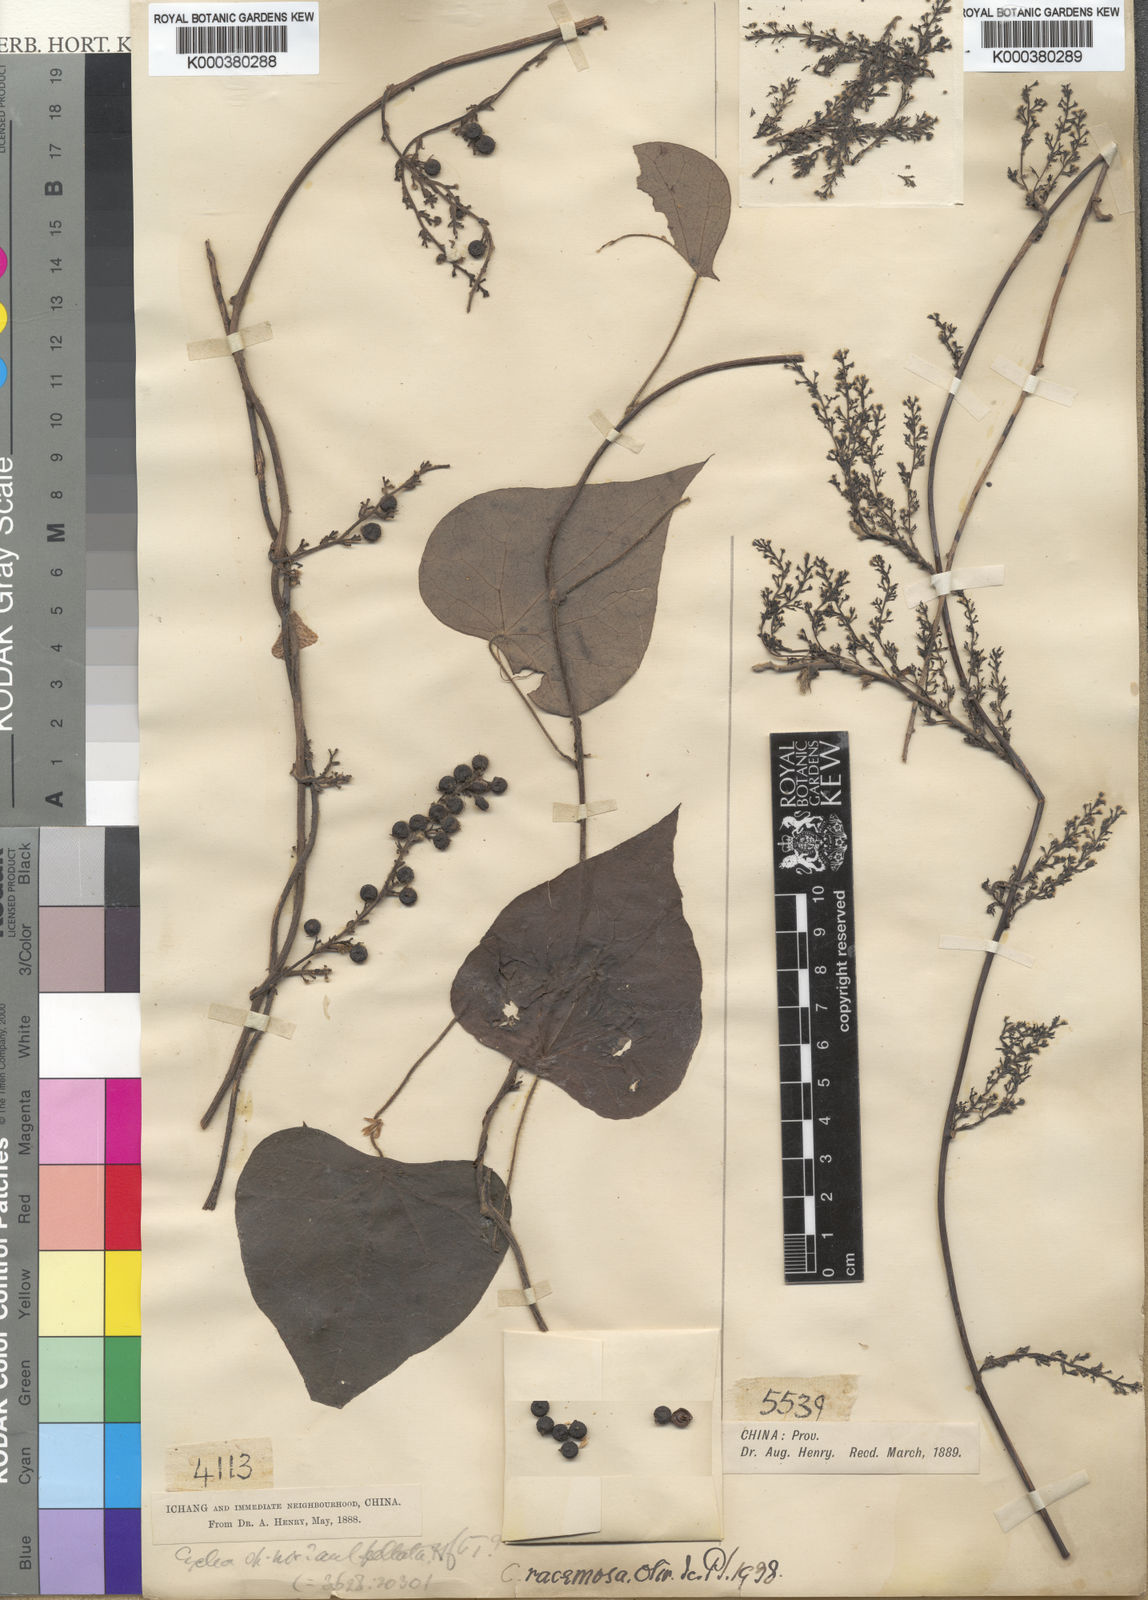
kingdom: Plantae
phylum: Tracheophyta
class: Magnoliopsida
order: Ranunculales
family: Menispermaceae
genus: Cyclea
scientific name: Cyclea racemosa
